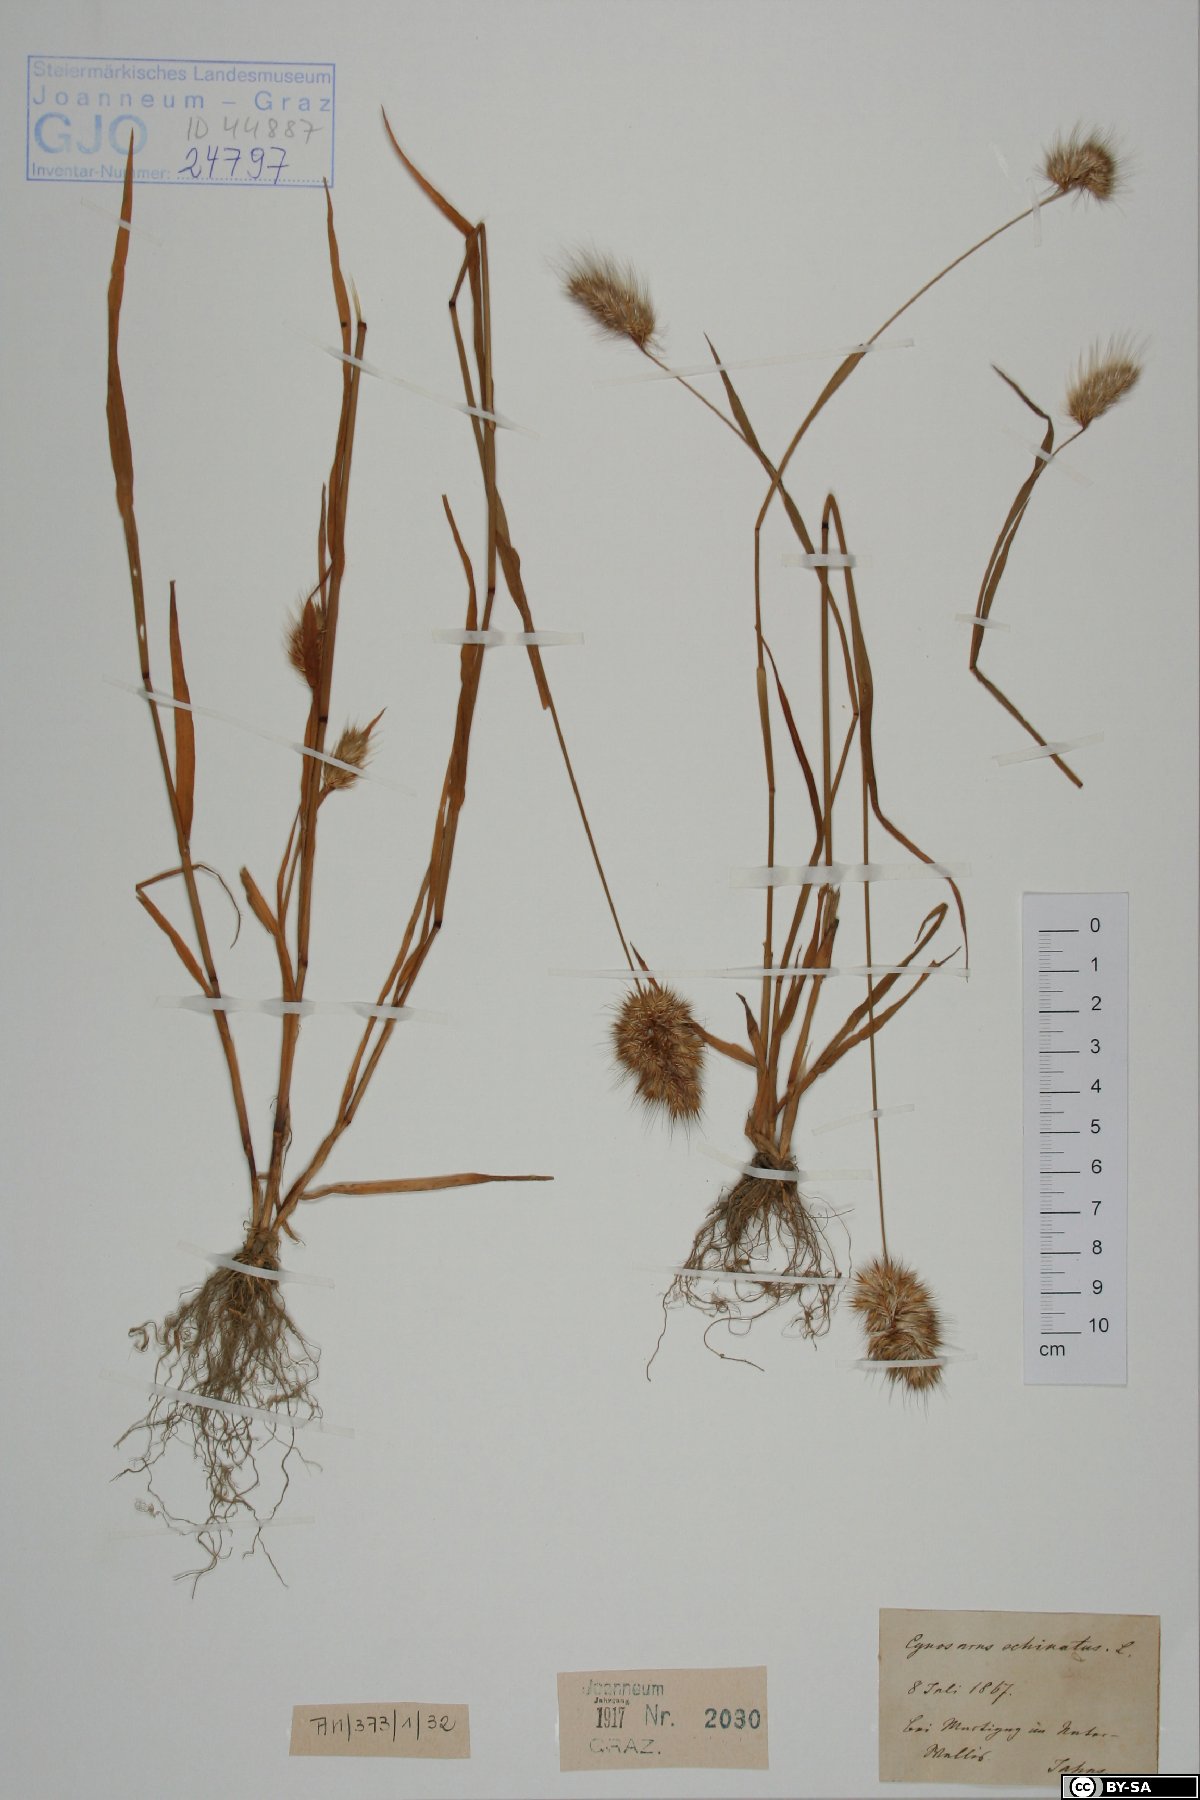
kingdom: Plantae
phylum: Tracheophyta
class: Liliopsida
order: Poales
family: Poaceae
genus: Cynosurus
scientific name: Cynosurus echinatus
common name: Rough dog's-tail
